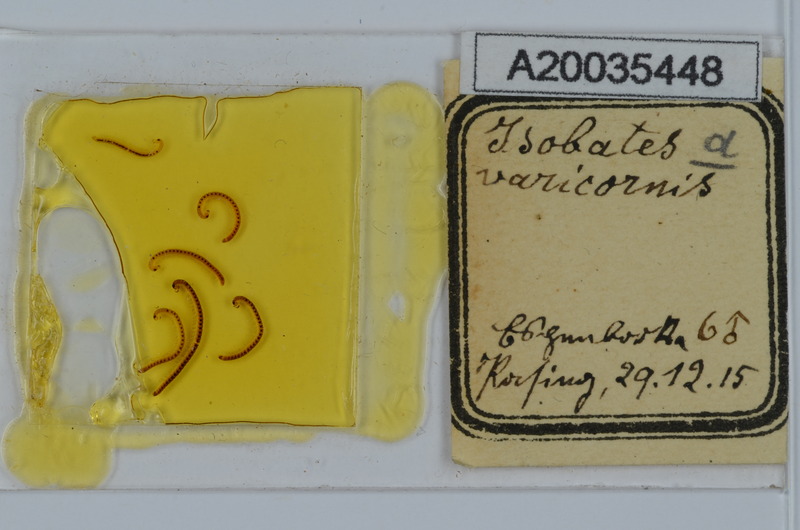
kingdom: Animalia
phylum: Arthropoda
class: Diplopoda
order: Julida
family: Nemasomatidae
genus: Isobates
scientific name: Isobates varicornis
